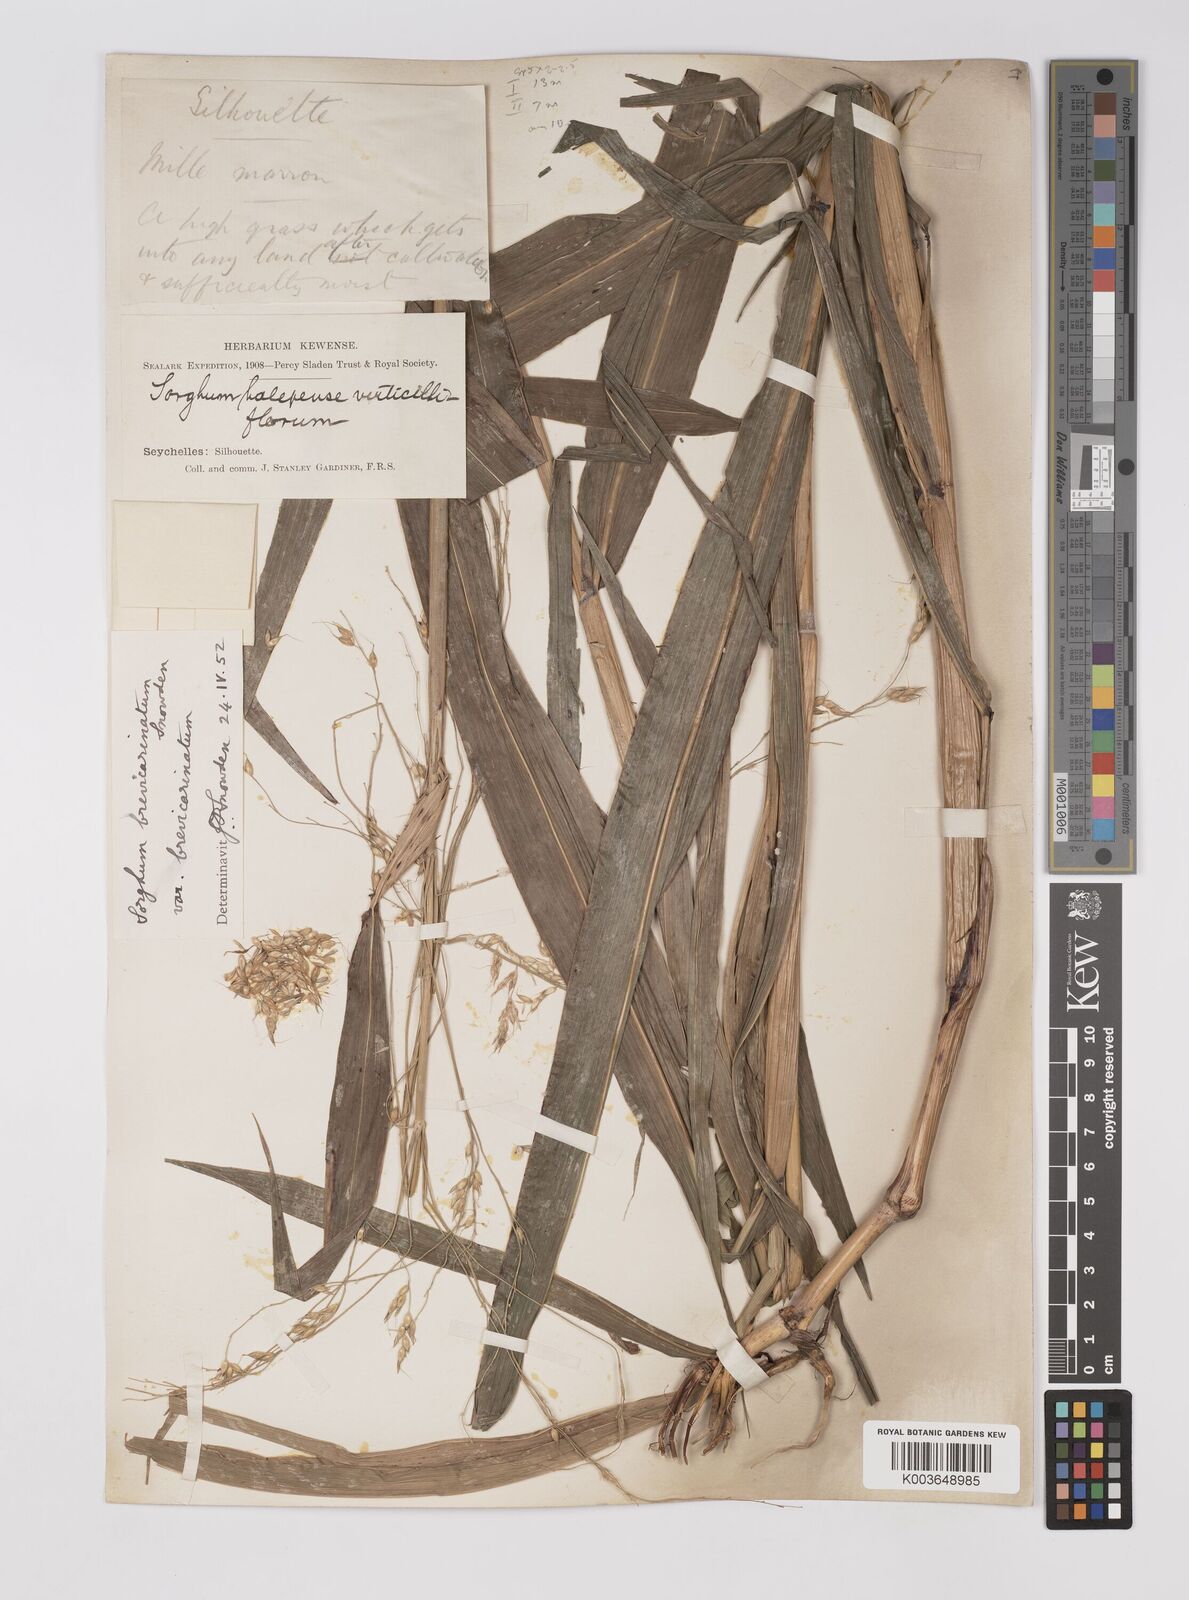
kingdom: Plantae
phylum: Tracheophyta
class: Liliopsida
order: Poales
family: Poaceae
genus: Sorghum
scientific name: Sorghum arundinaceum
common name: Sorghum
